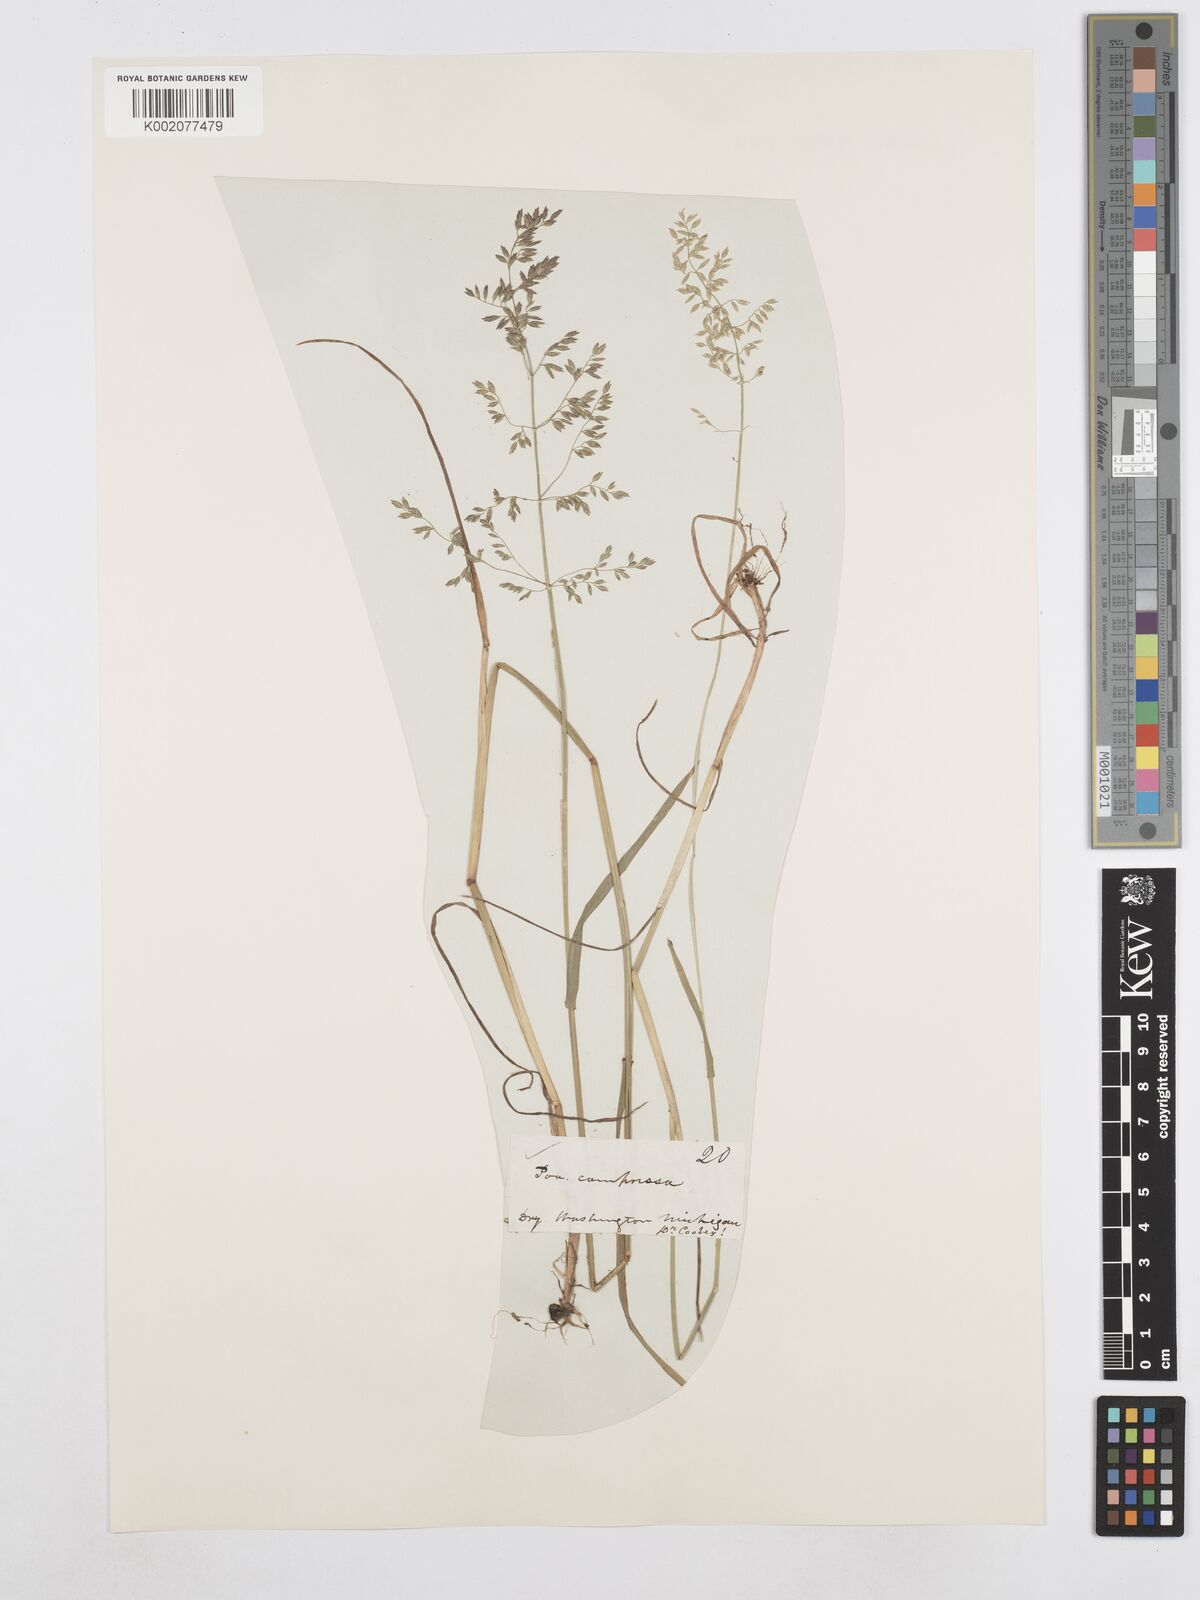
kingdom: Plantae
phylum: Tracheophyta
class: Liliopsida
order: Poales
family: Poaceae
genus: Poa
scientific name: Poa compressa
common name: Canada bluegrass
